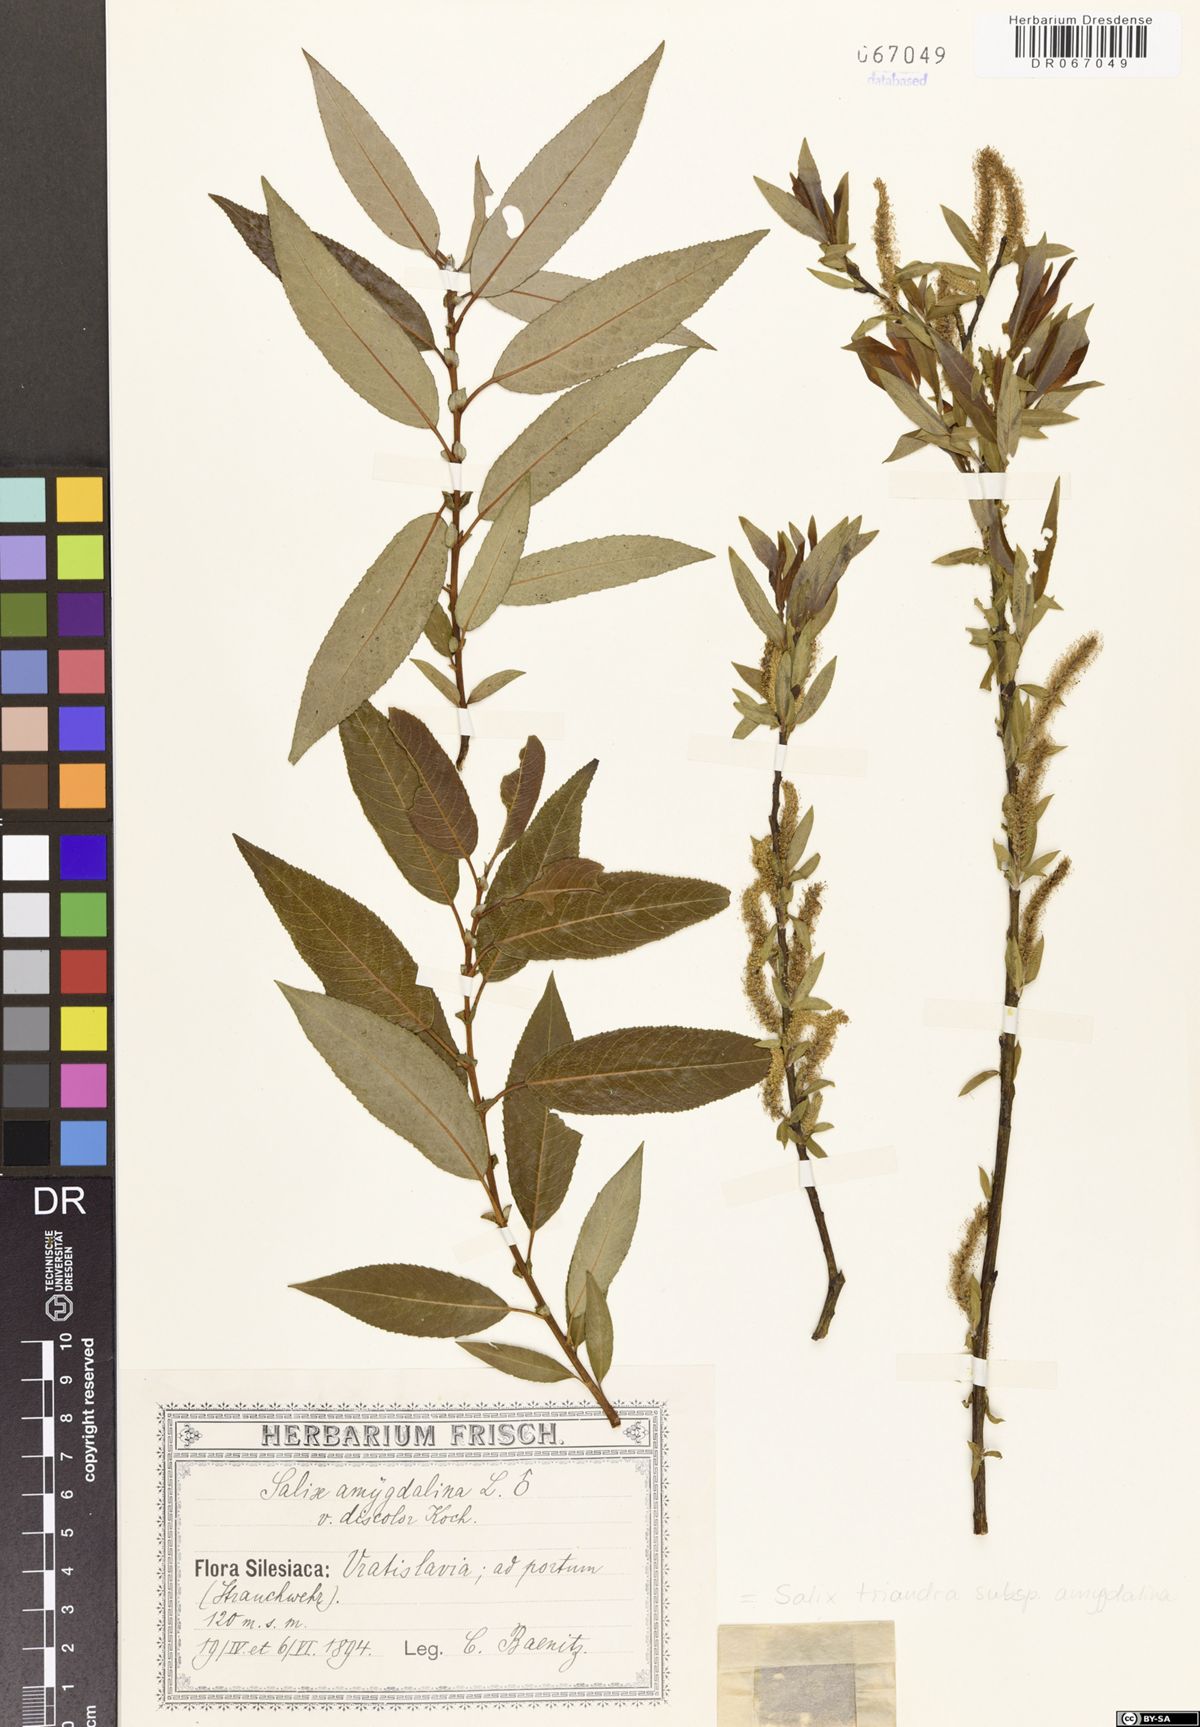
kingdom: Plantae
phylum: Tracheophyta
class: Magnoliopsida
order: Malpighiales
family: Salicaceae
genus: Salix
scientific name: Salix triandra
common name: Almond willow
